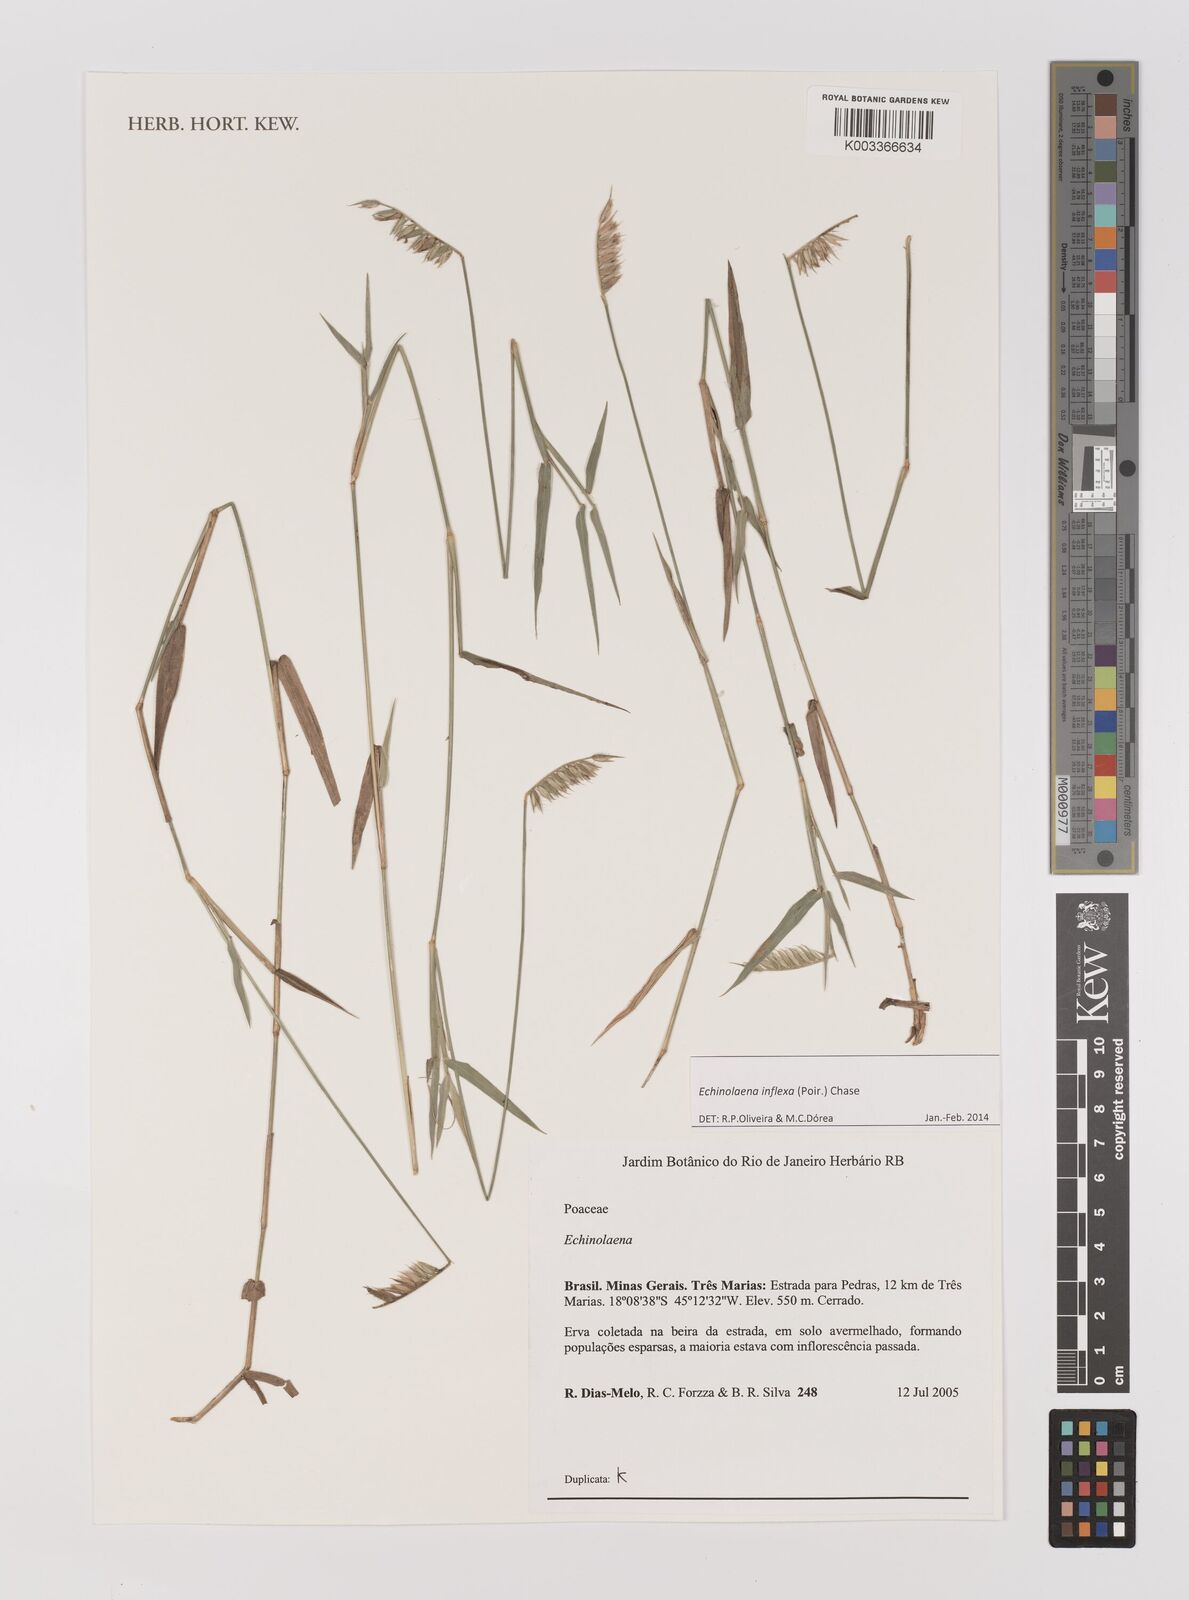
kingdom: Plantae
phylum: Tracheophyta
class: Liliopsida
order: Poales
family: Poaceae
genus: Echinolaena
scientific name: Echinolaena inflexa
